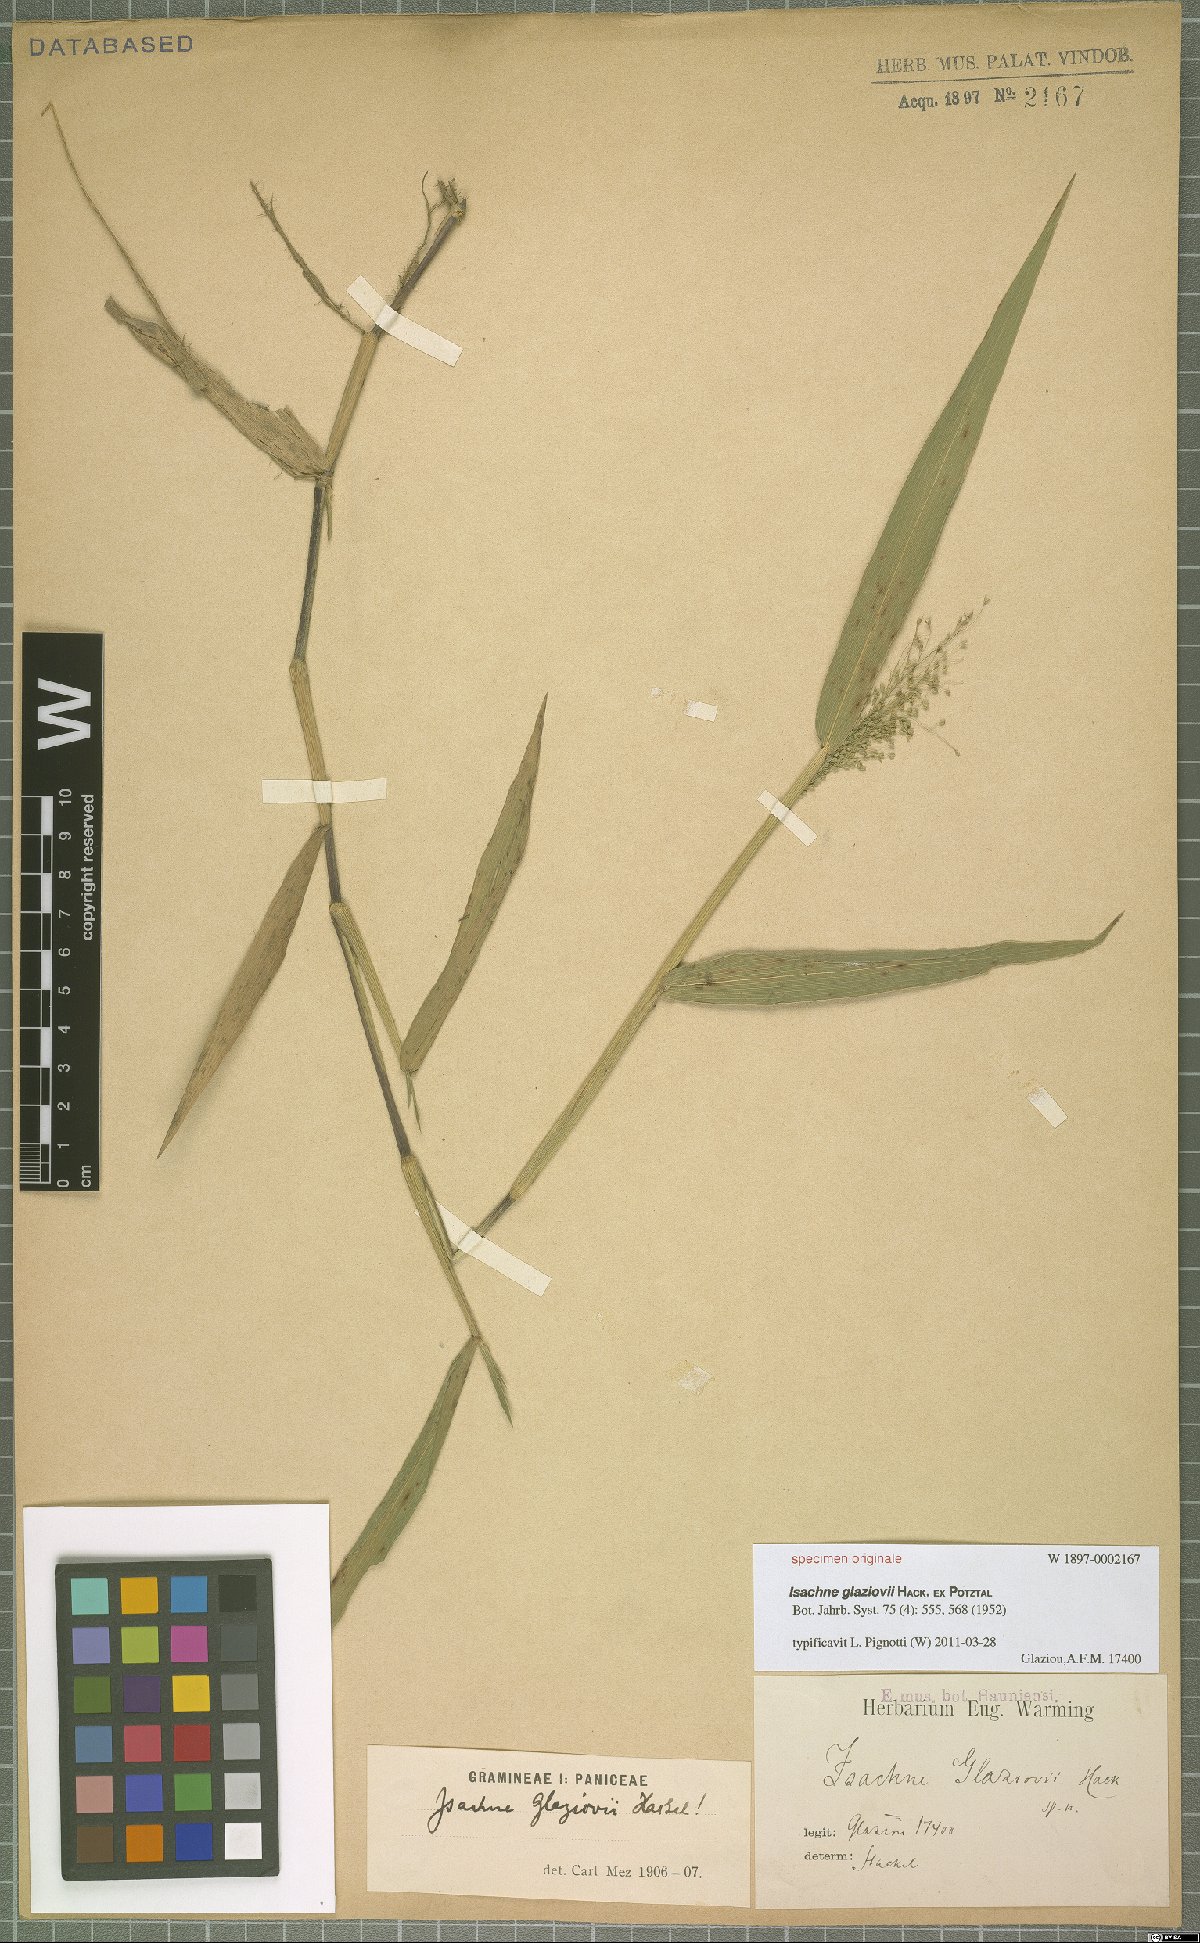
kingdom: Plantae
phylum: Tracheophyta
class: Liliopsida
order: Poales
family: Poaceae
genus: Isachne
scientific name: Isachne
